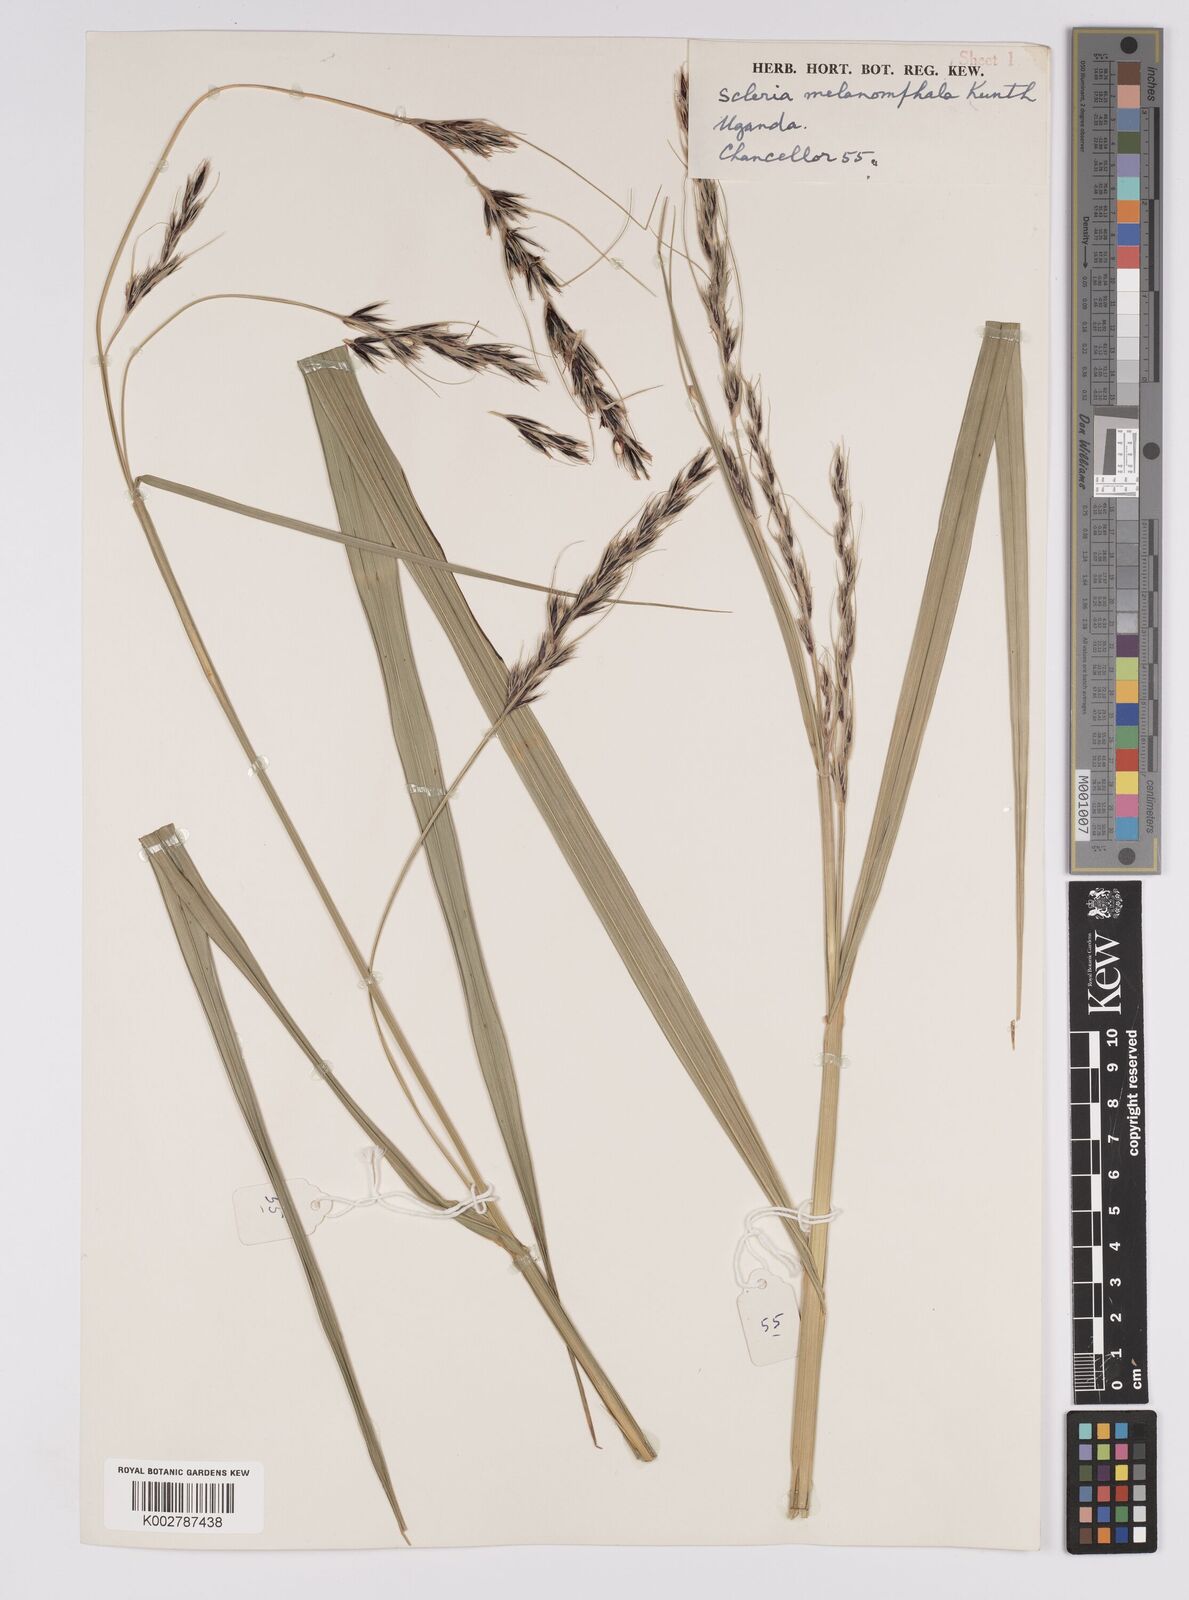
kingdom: Plantae
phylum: Tracheophyta
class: Liliopsida
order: Poales
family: Cyperaceae
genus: Scleria
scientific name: Scleria melanomphala
